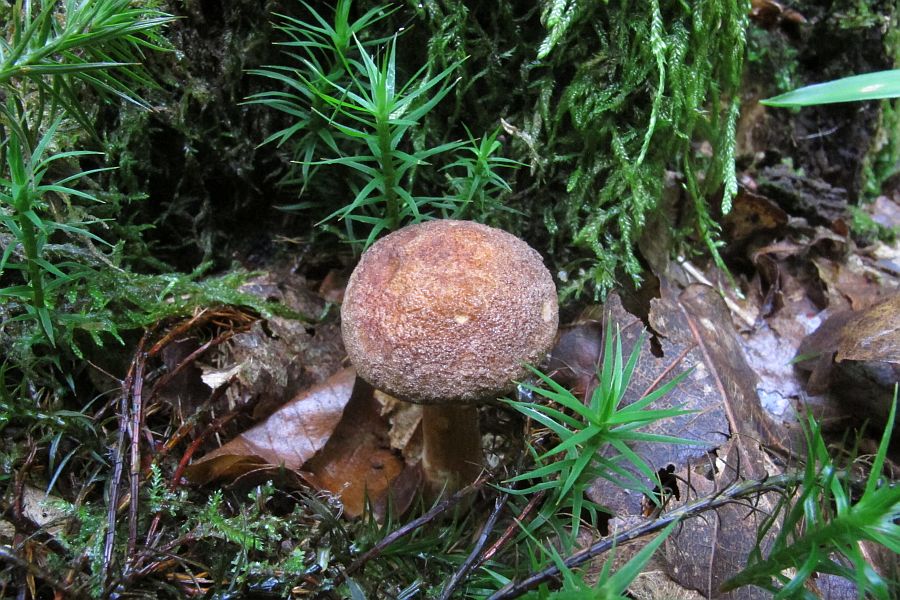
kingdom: Fungi
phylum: Basidiomycota
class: Agaricomycetes
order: Boletales
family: Hygrophoropsidaceae
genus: Hygrophoropsis
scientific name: Hygrophoropsis rufa
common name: brunfiltet orangekantarel
